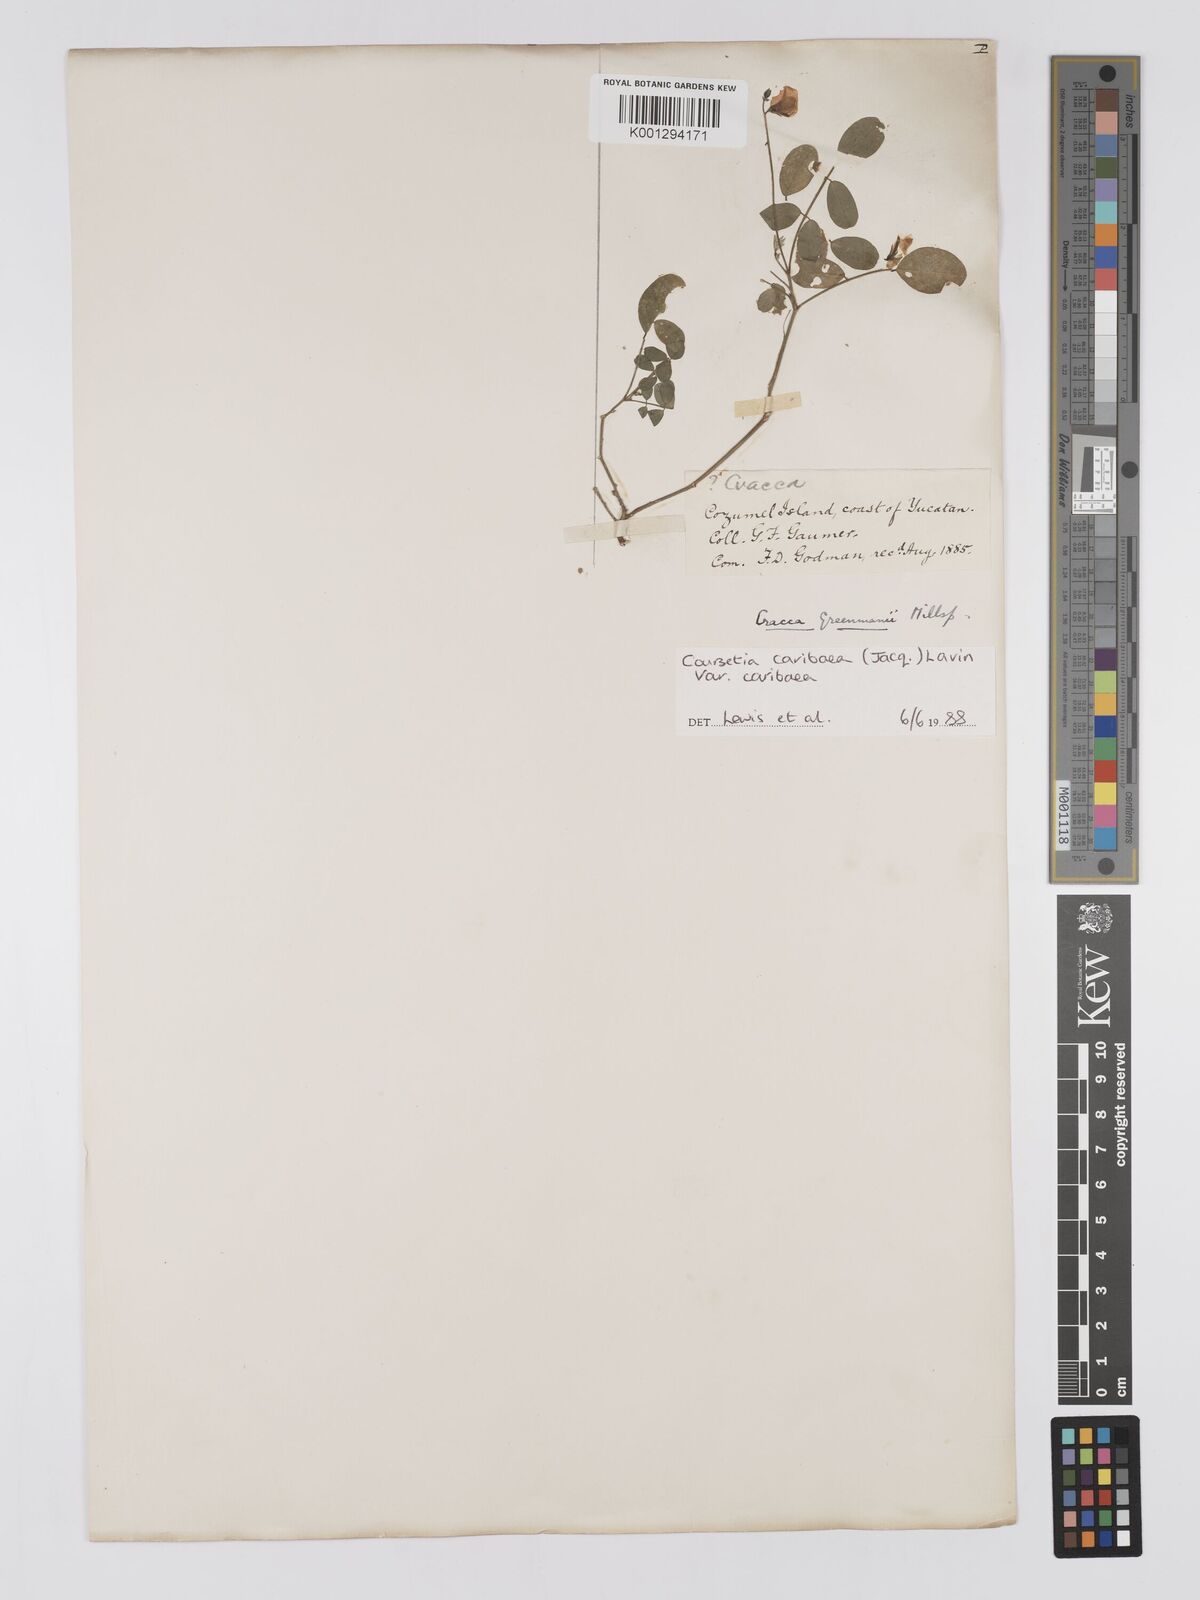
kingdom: Plantae
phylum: Tracheophyta
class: Magnoliopsida
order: Fabales
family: Fabaceae
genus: Coursetia
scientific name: Coursetia
